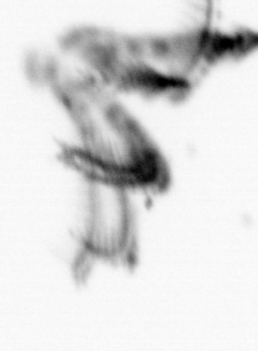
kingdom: Animalia
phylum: Arthropoda
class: Maxillopoda
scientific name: Maxillopoda
